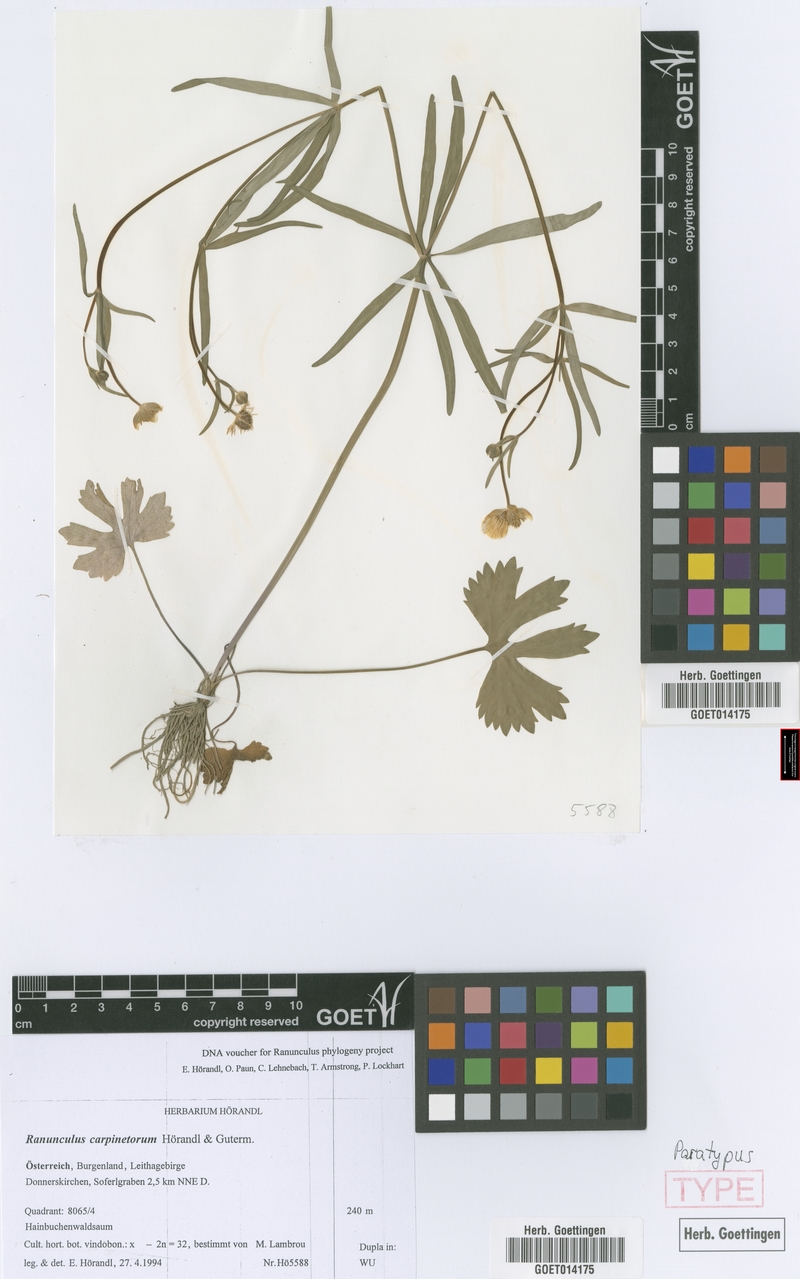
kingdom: Plantae
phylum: Tracheophyta
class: Magnoliopsida
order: Ranunculales
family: Ranunculaceae
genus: Ranunculus
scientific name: Ranunculus carpinetorum
